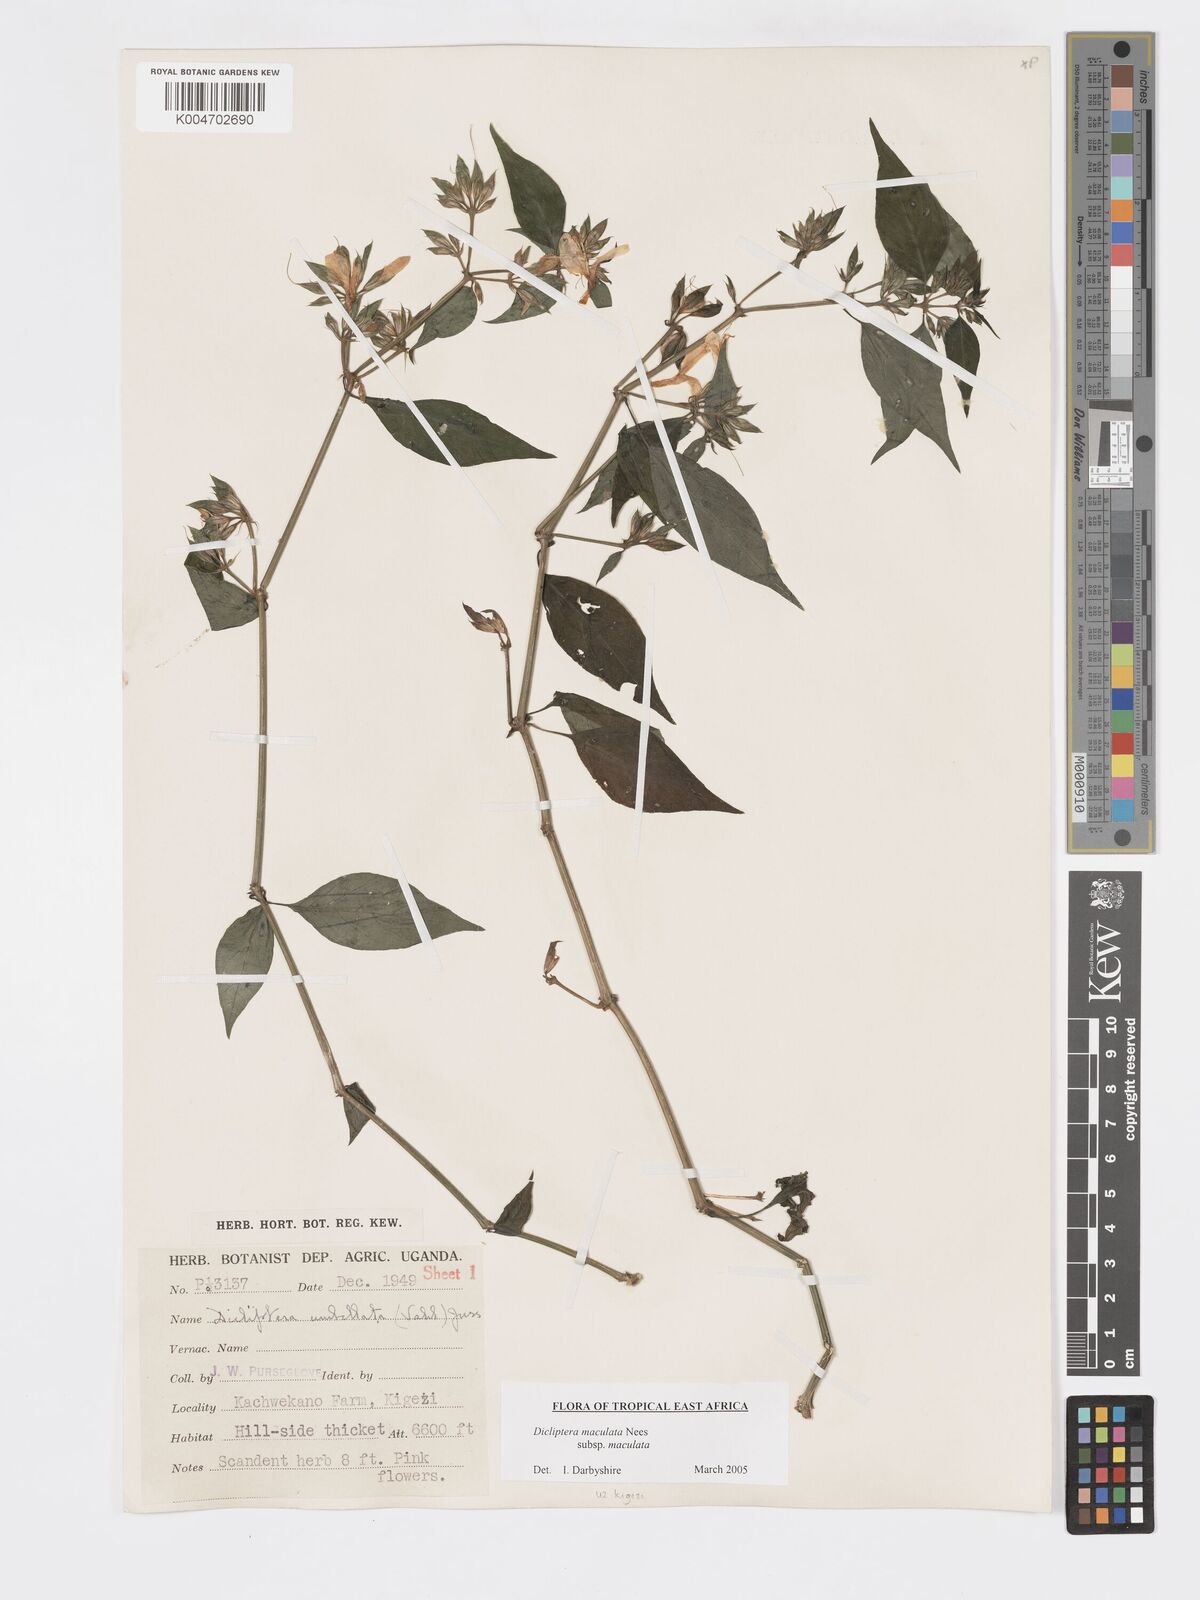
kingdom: Plantae
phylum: Tracheophyta
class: Magnoliopsida
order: Lamiales
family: Acanthaceae
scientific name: Acanthaceae
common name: Acanthaceae
